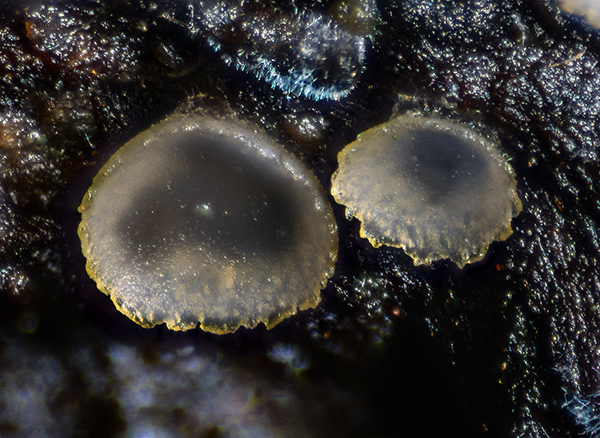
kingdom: Fungi
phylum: Ascomycota
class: Orbiliomycetes
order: Orbiliales
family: Orbiliaceae
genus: Orbilia
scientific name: Orbilia crenatomarginata
